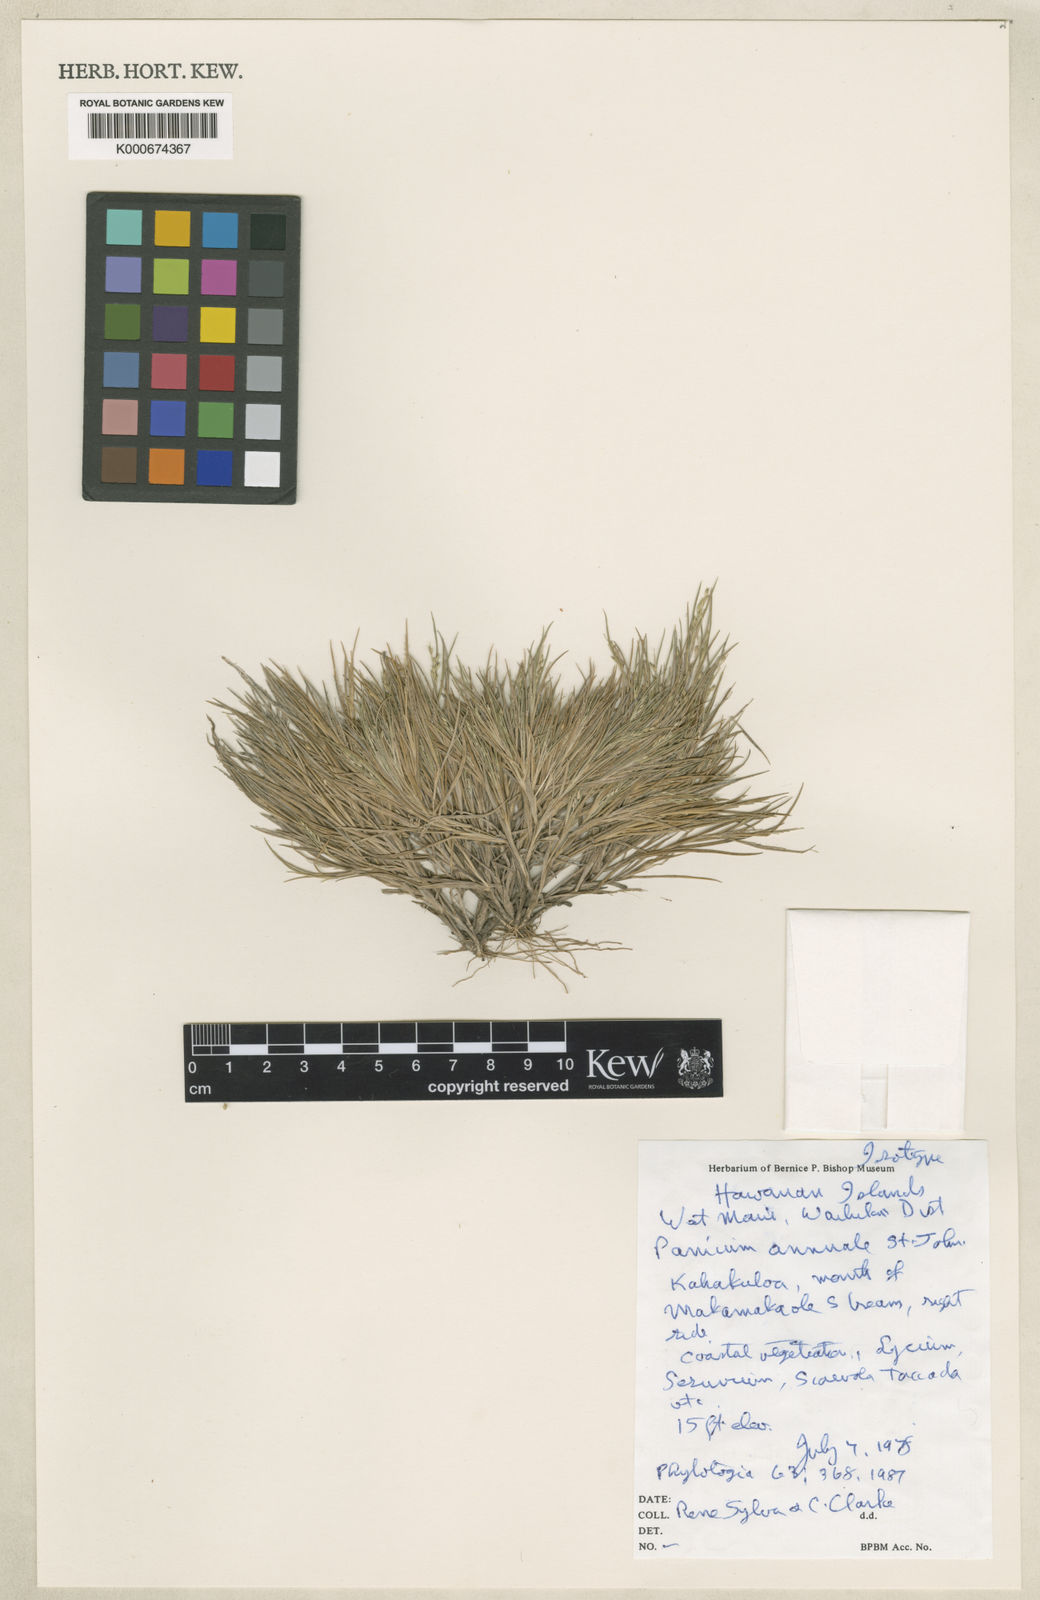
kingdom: Plantae
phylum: Tracheophyta
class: Liliopsida
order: Poales
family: Poaceae
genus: Panicum
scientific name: Panicum fauriei
